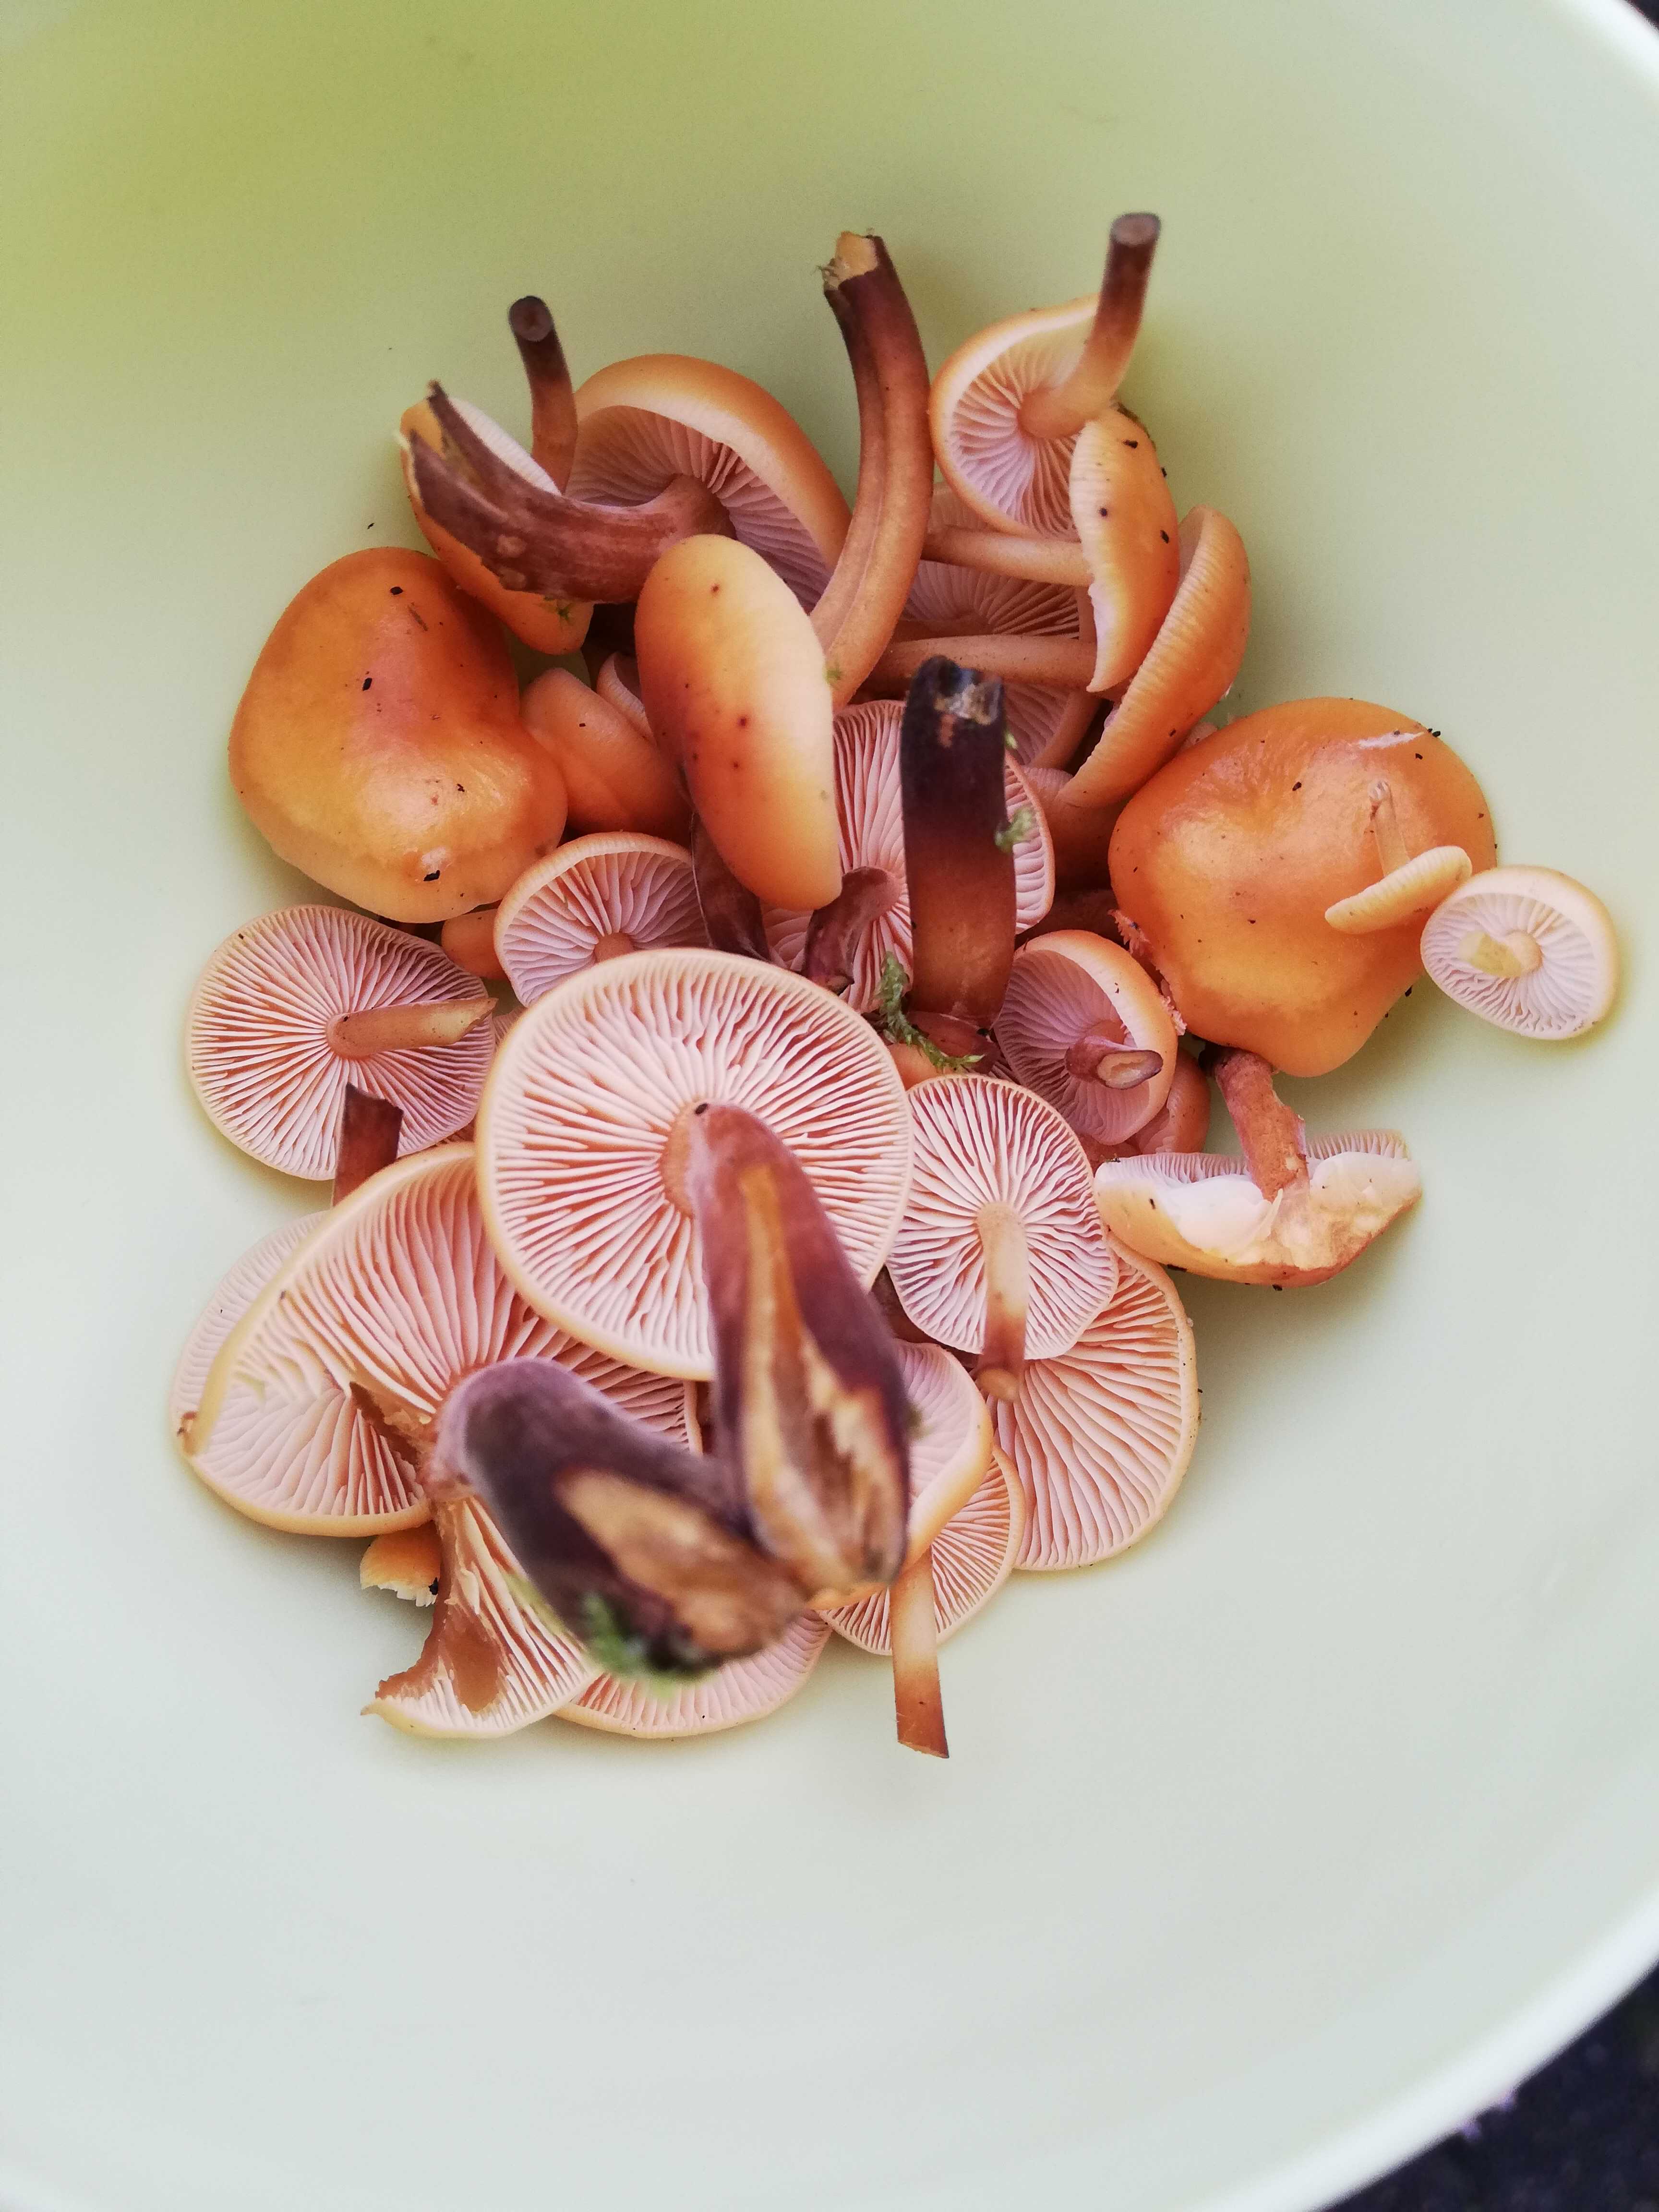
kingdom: Fungi
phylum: Basidiomycota
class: Agaricomycetes
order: Agaricales
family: Physalacriaceae
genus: Flammulina
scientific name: Flammulina
